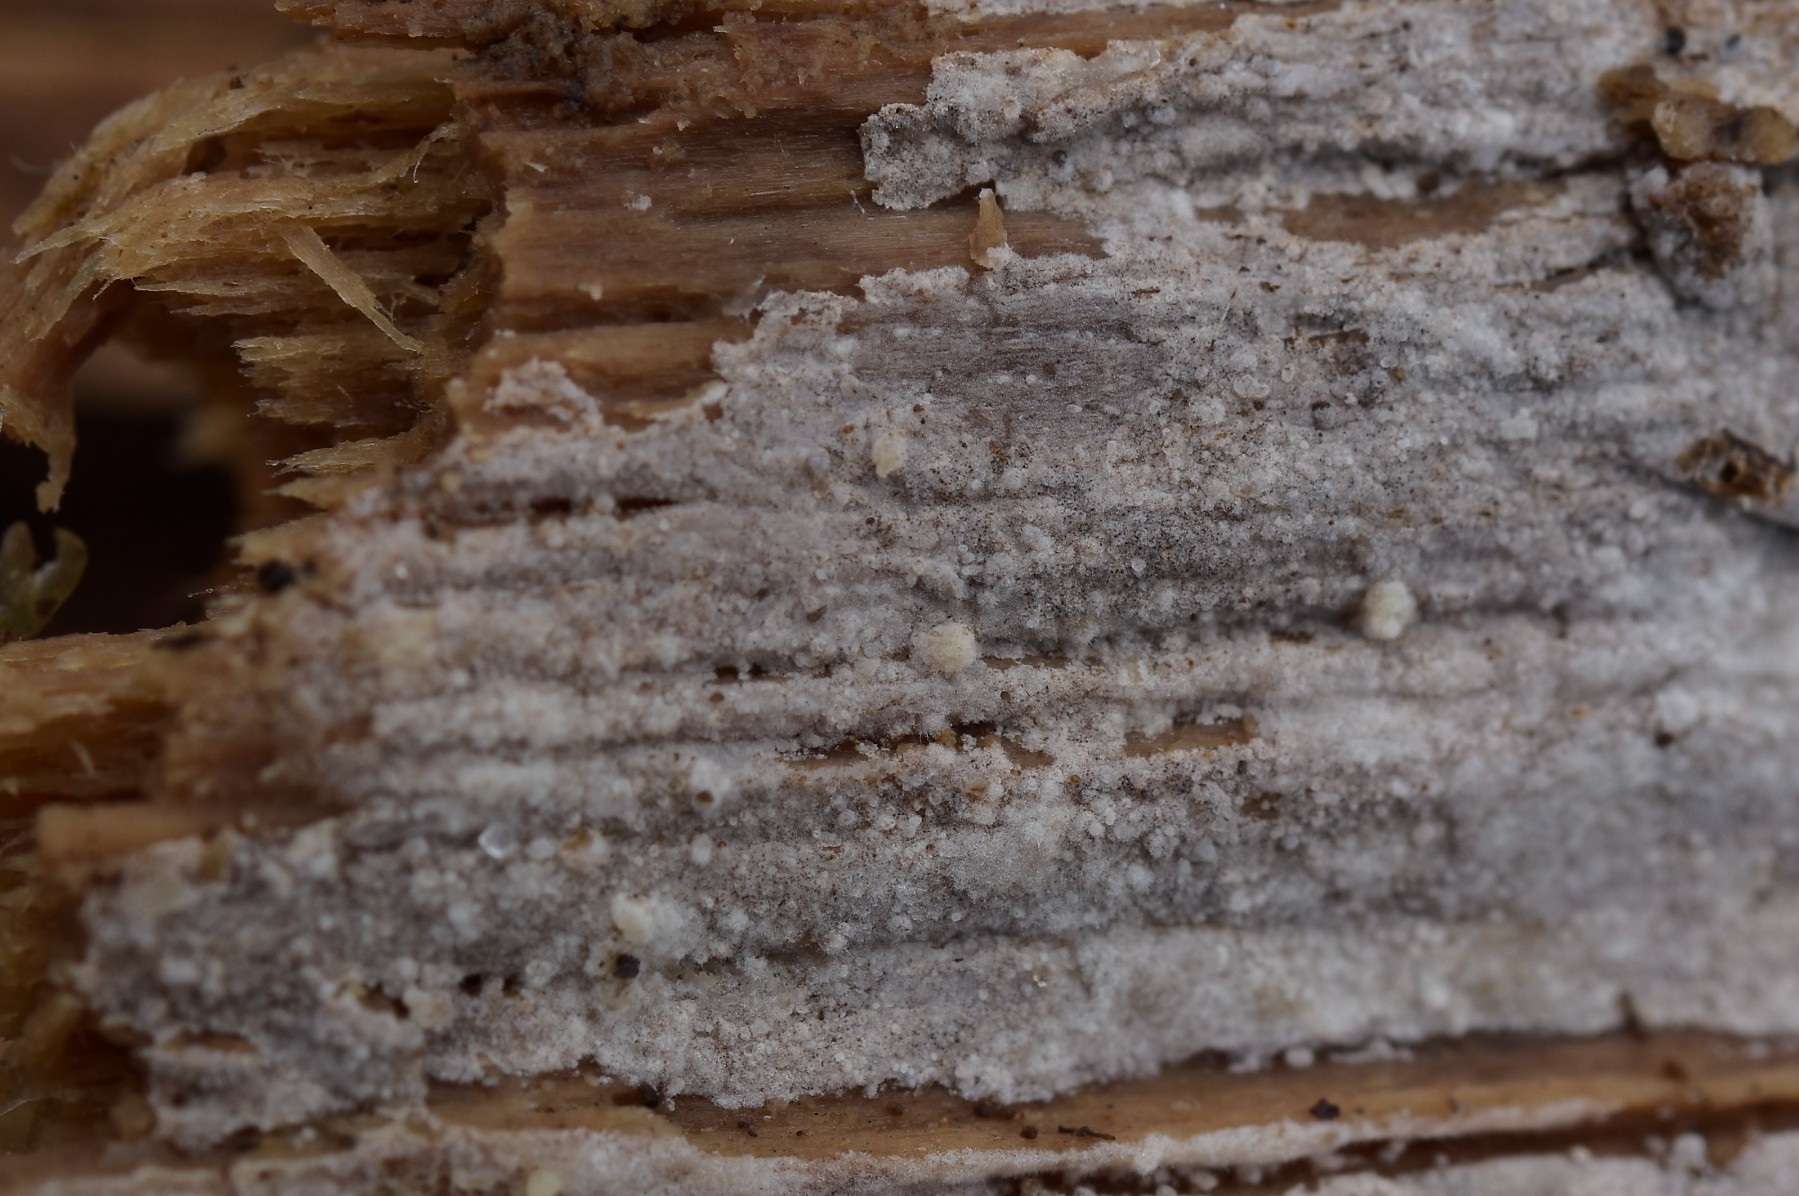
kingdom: Fungi
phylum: Basidiomycota
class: Agaricomycetes
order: Hymenochaetales
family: Hyphodontiaceae
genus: Hyphodontia
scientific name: Hyphodontia pallidula
